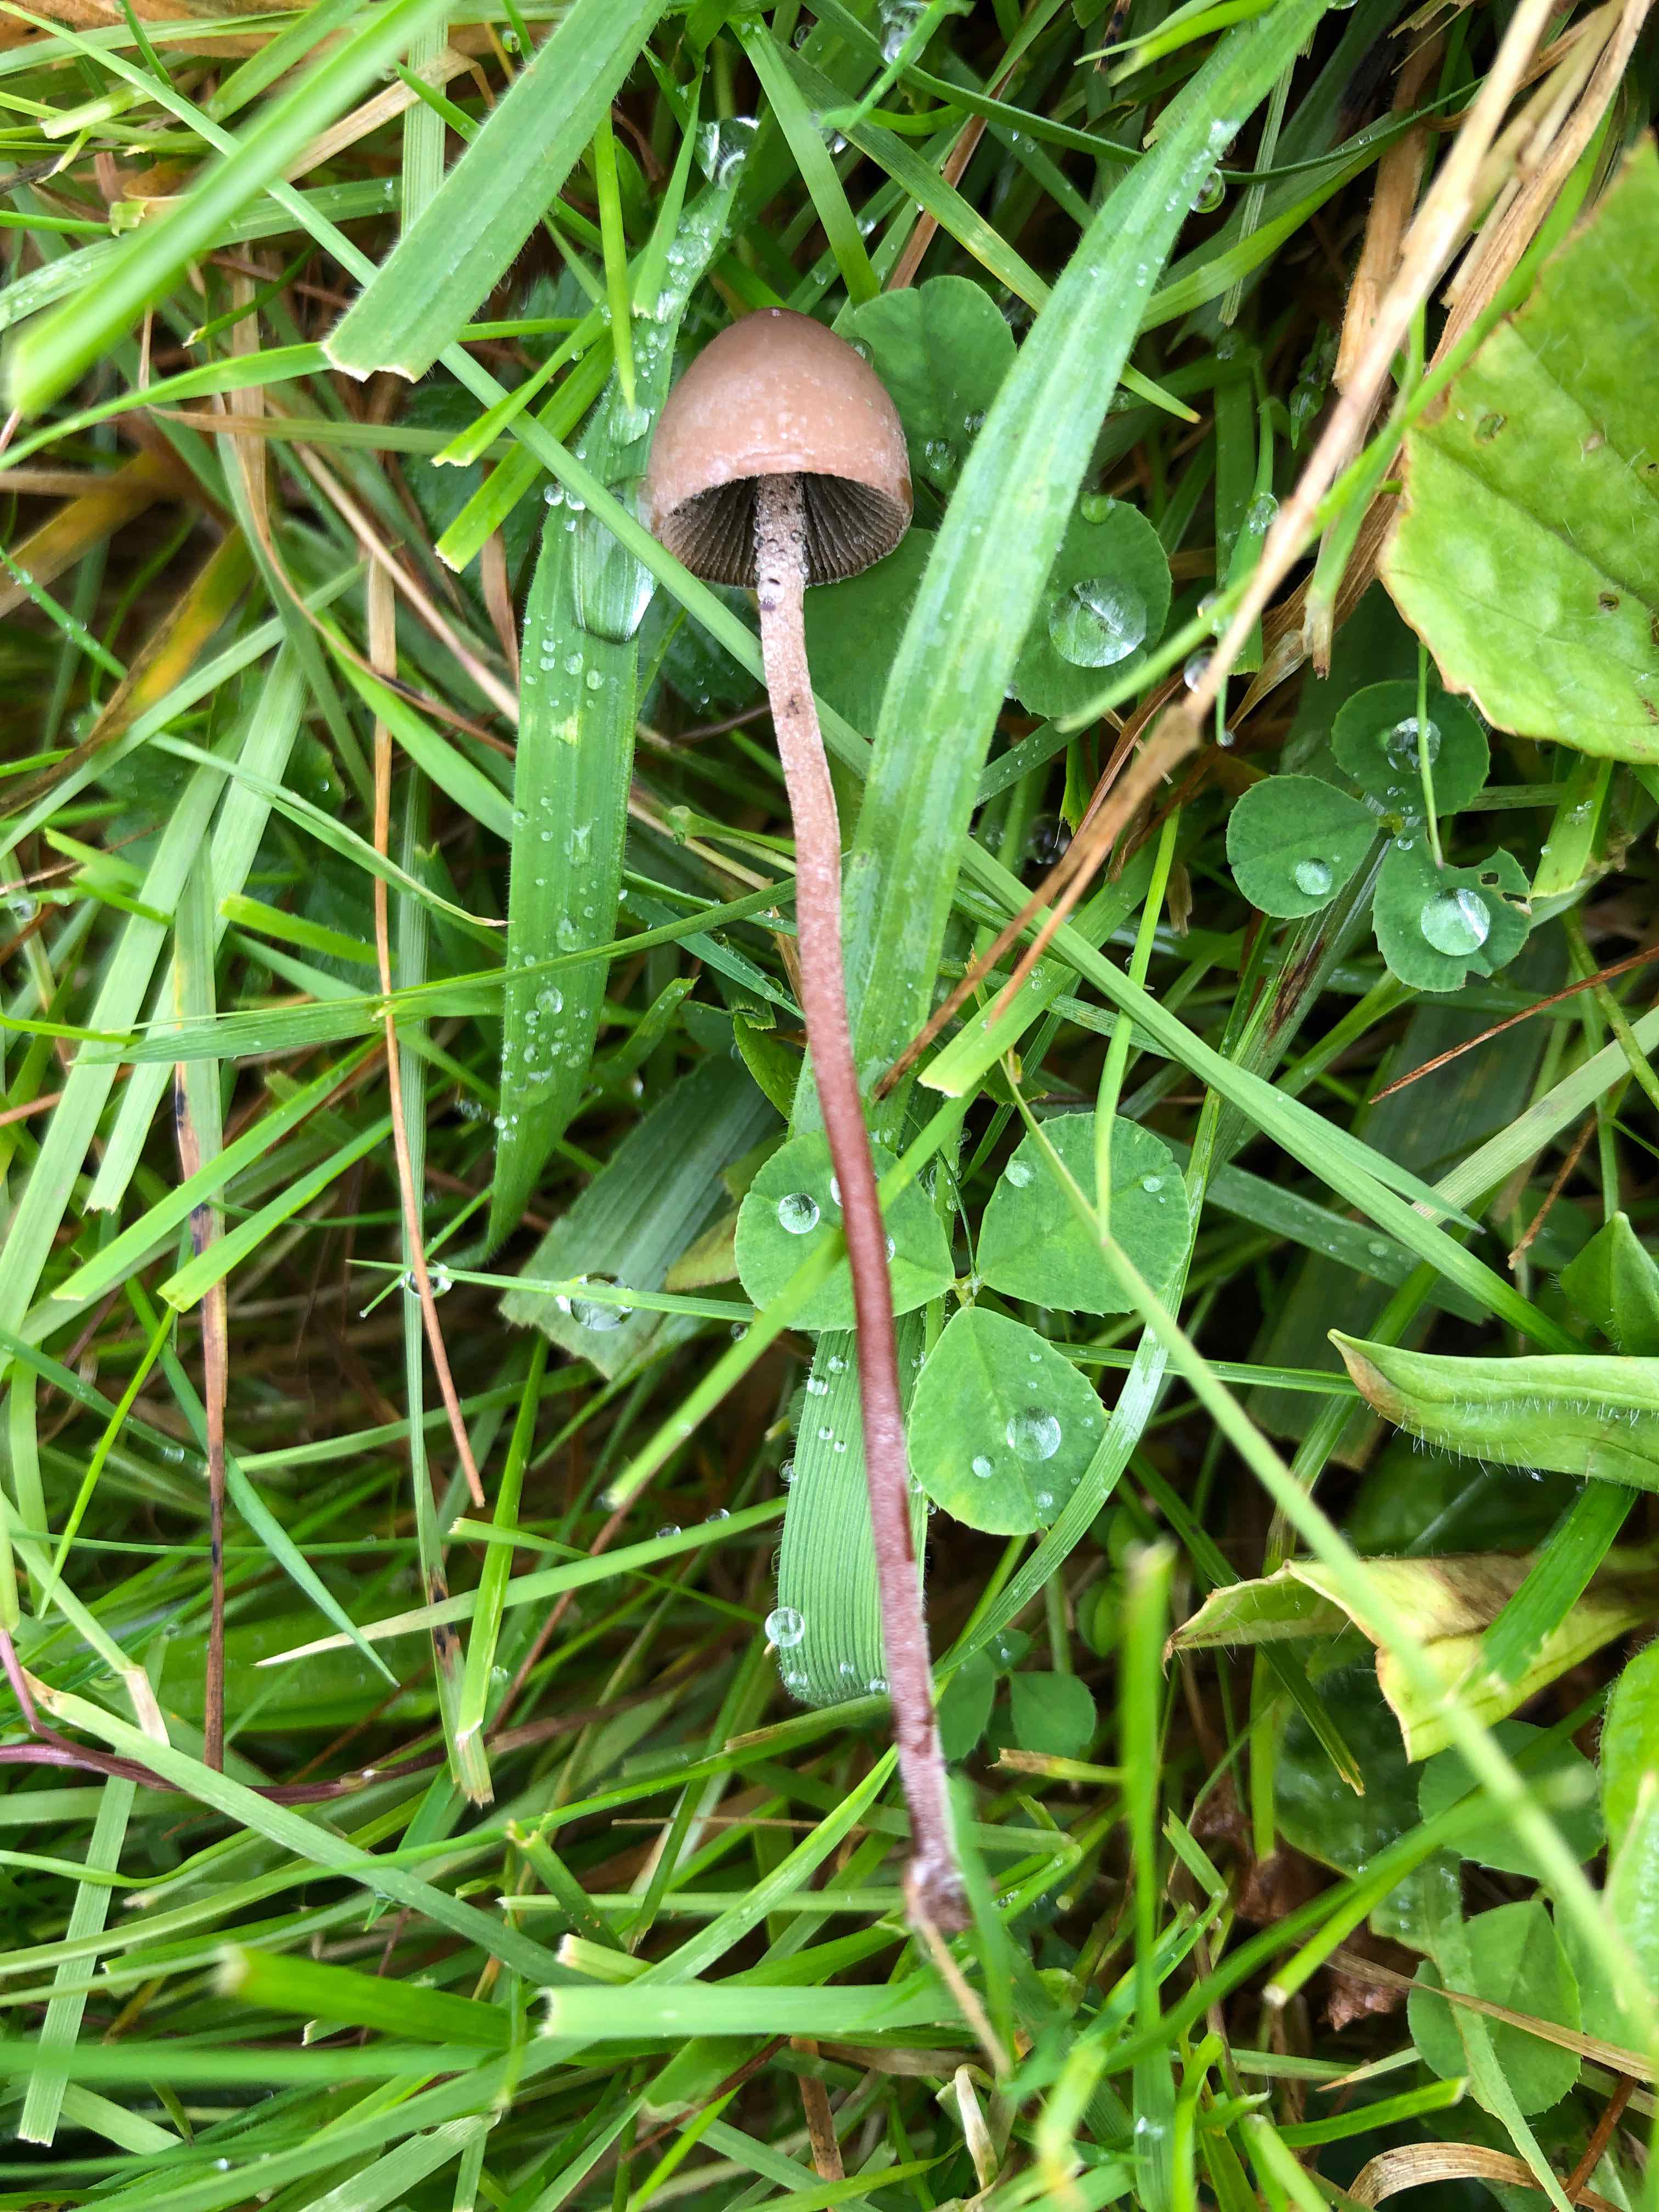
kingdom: Fungi
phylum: Basidiomycota
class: Agaricomycetes
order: Agaricales
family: Bolbitiaceae
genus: Panaeolus
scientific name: Panaeolus papilionaceus
